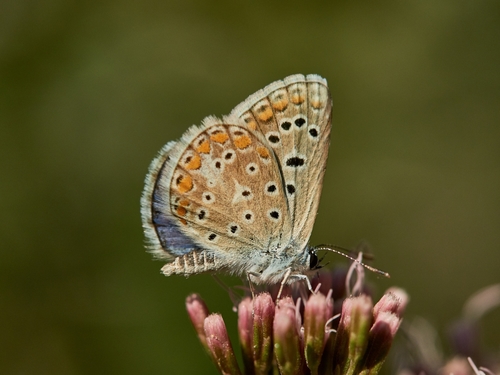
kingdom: Animalia
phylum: Arthropoda
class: Insecta
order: Lepidoptera
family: Lycaenidae
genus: Polyommatus
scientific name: Polyommatus icarus
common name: Common blue
